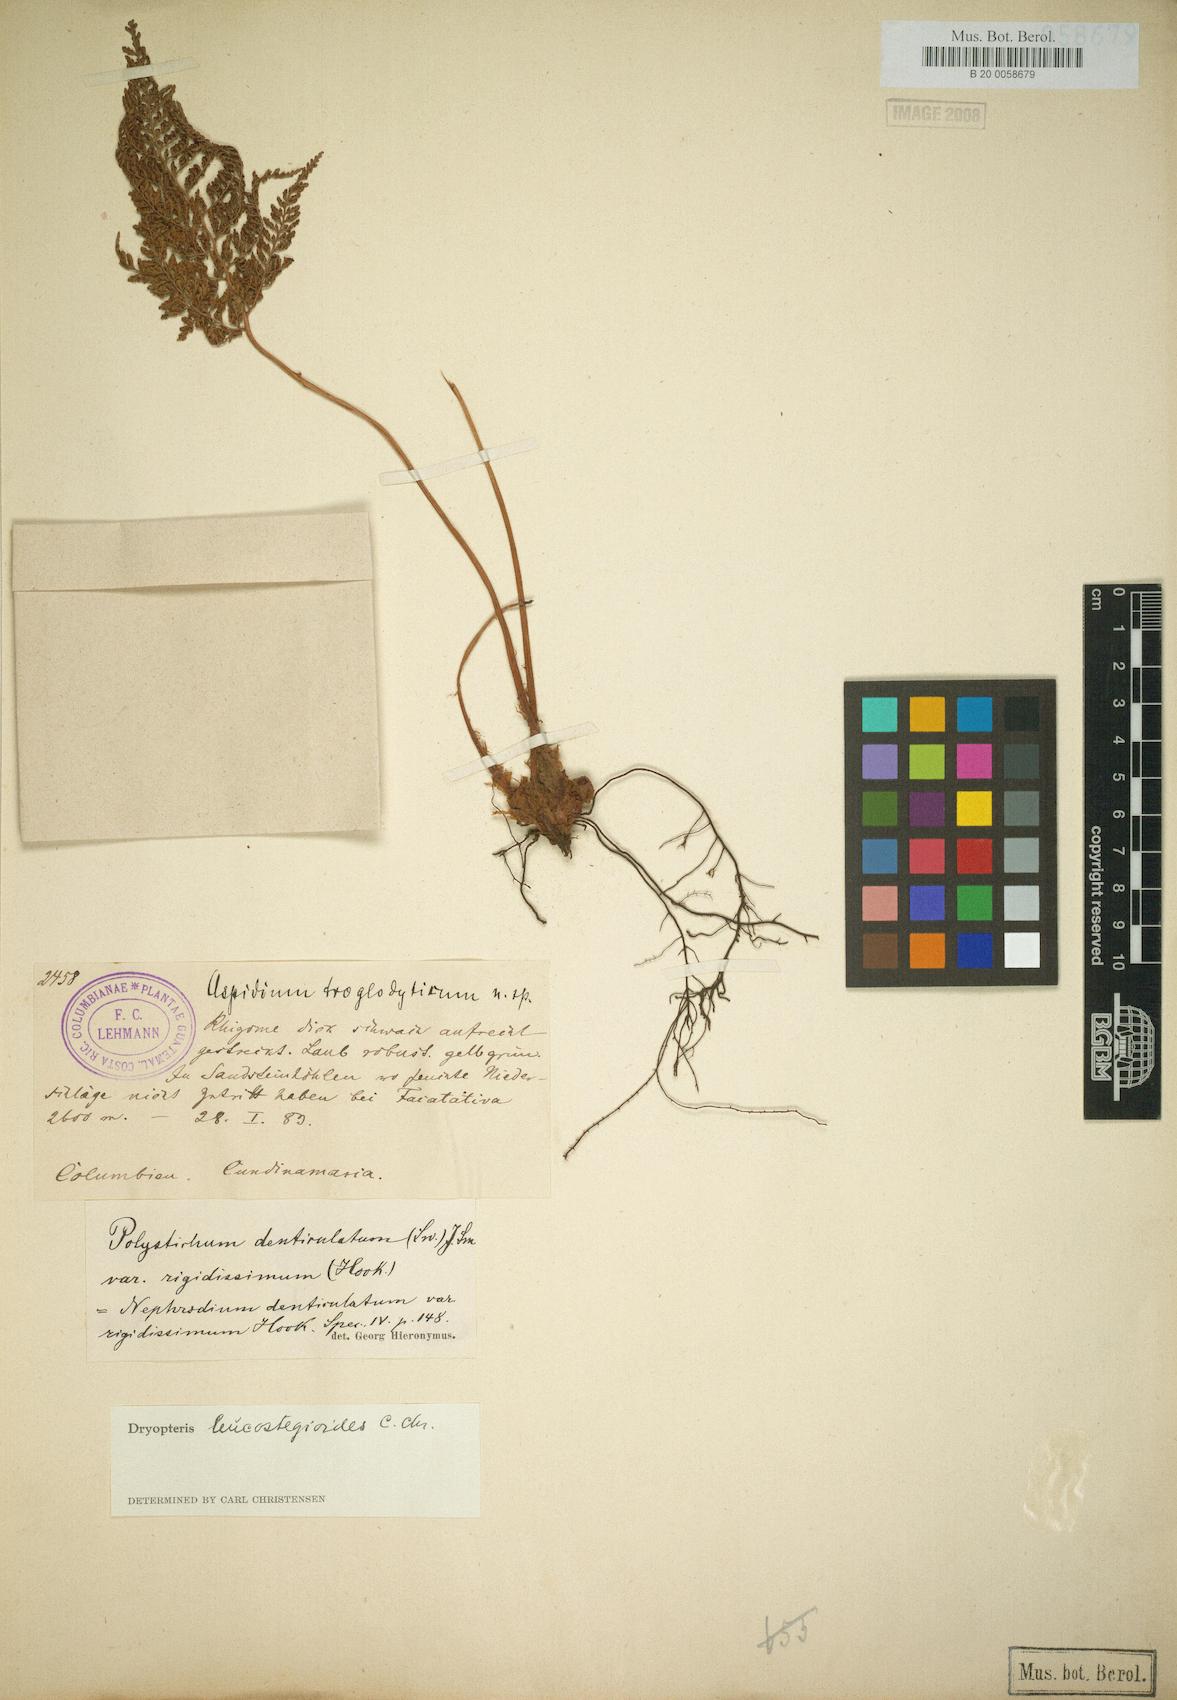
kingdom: Plantae
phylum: Tracheophyta
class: Polypodiopsida
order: Polypodiales
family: Dryopteridaceae
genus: Arachniodes
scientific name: Arachniodes leucostegioides
